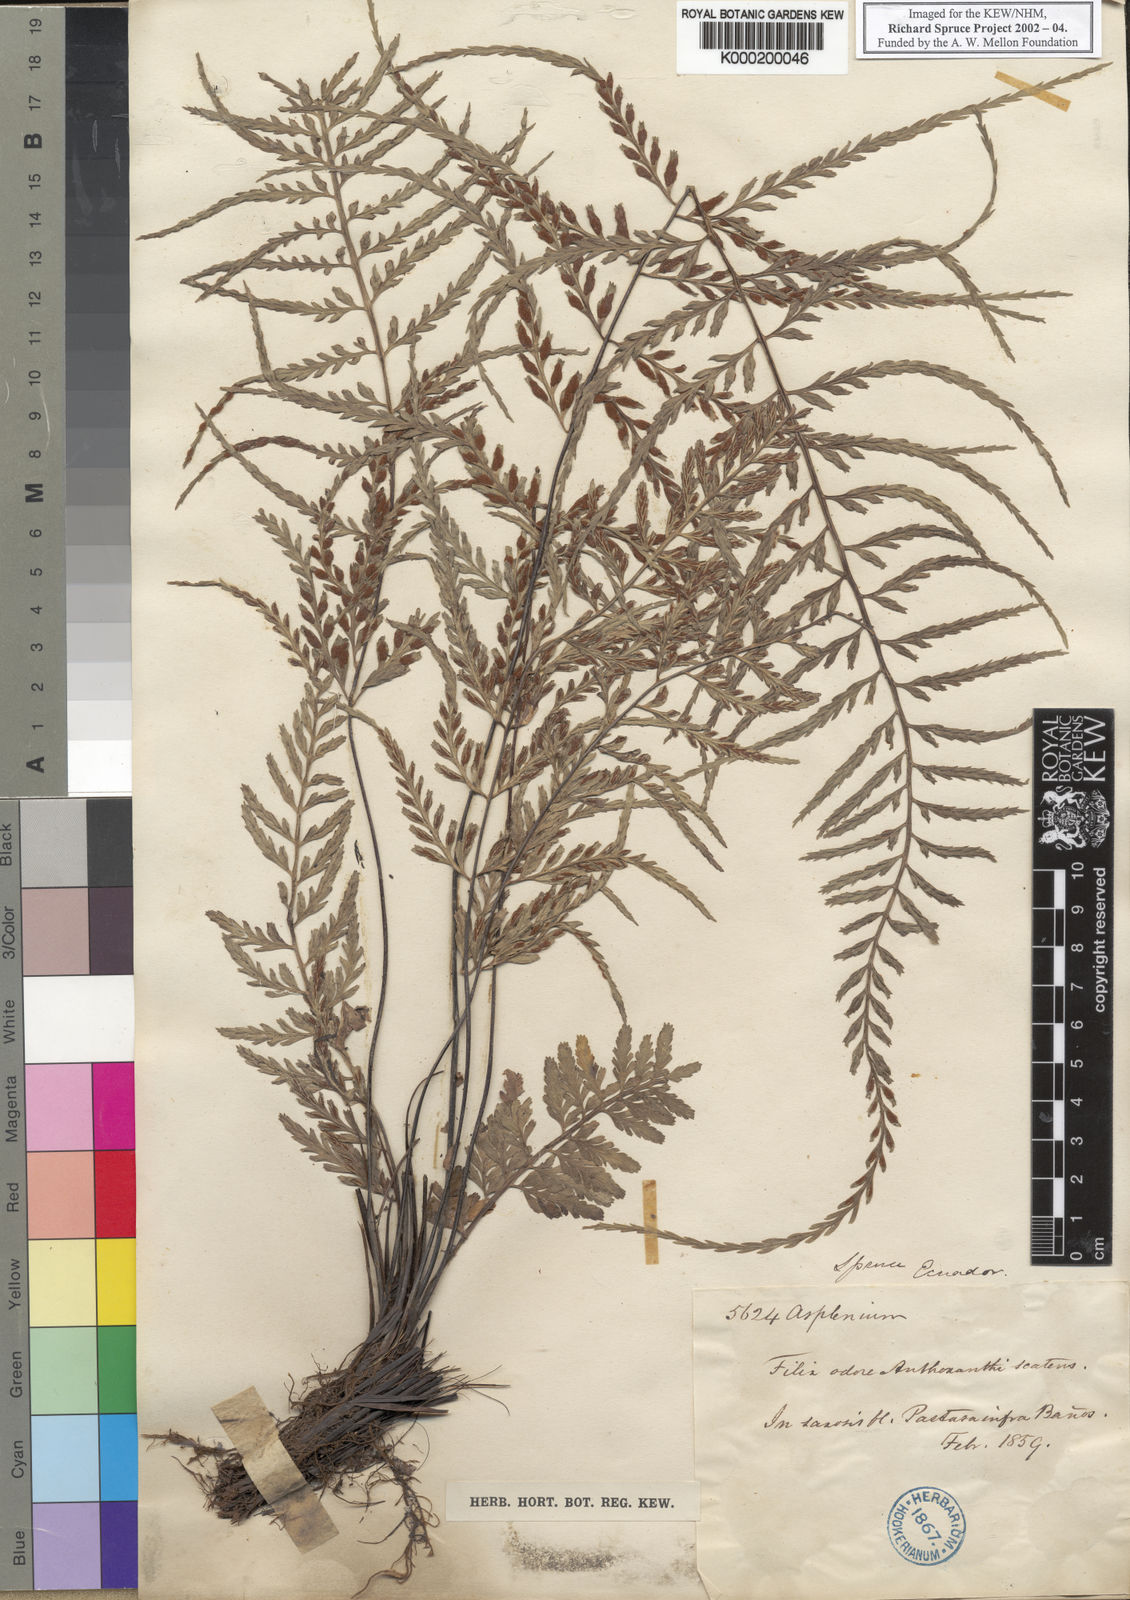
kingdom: Plantae
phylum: Tracheophyta
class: Polypodiopsida
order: Polypodiales
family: Aspleniaceae
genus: Asplenium
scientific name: Asplenium
